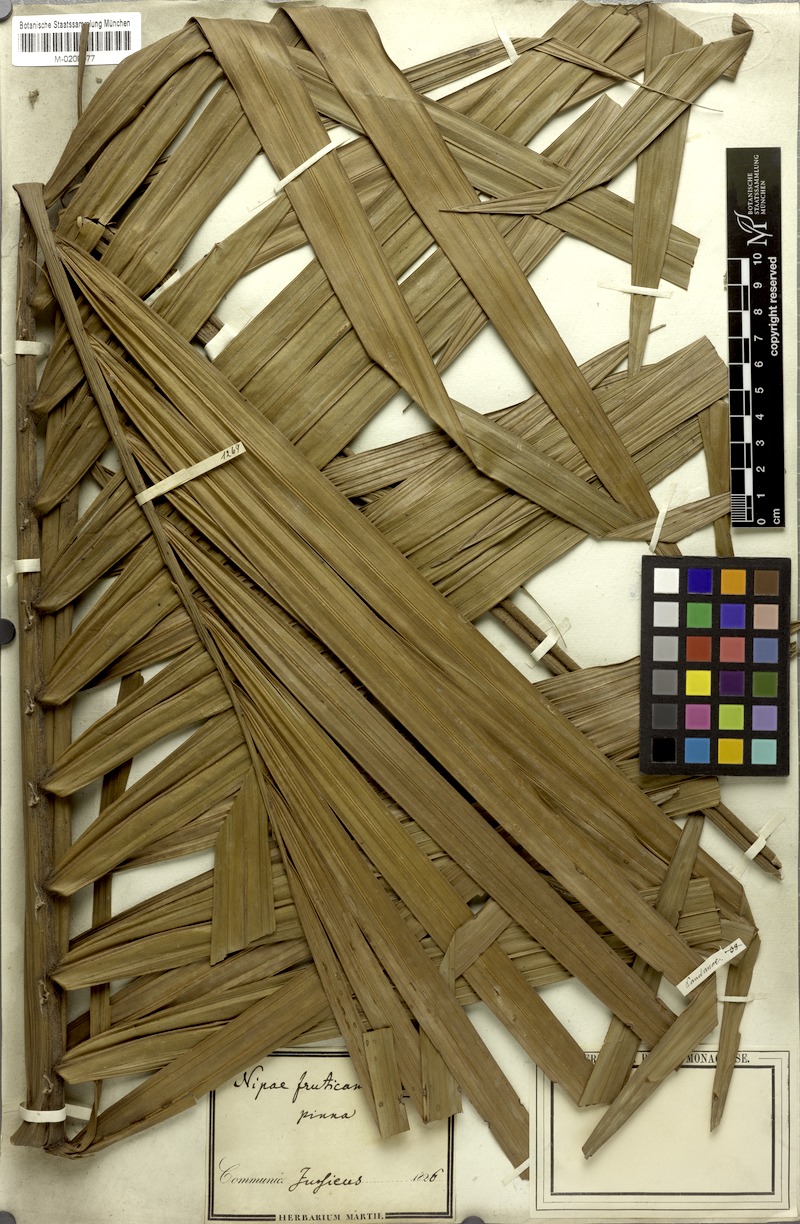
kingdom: Plantae
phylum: Tracheophyta
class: Liliopsida
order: Arecales
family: Arecaceae
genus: Nypa
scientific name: Nypa fruticans
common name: Mangrove palm
